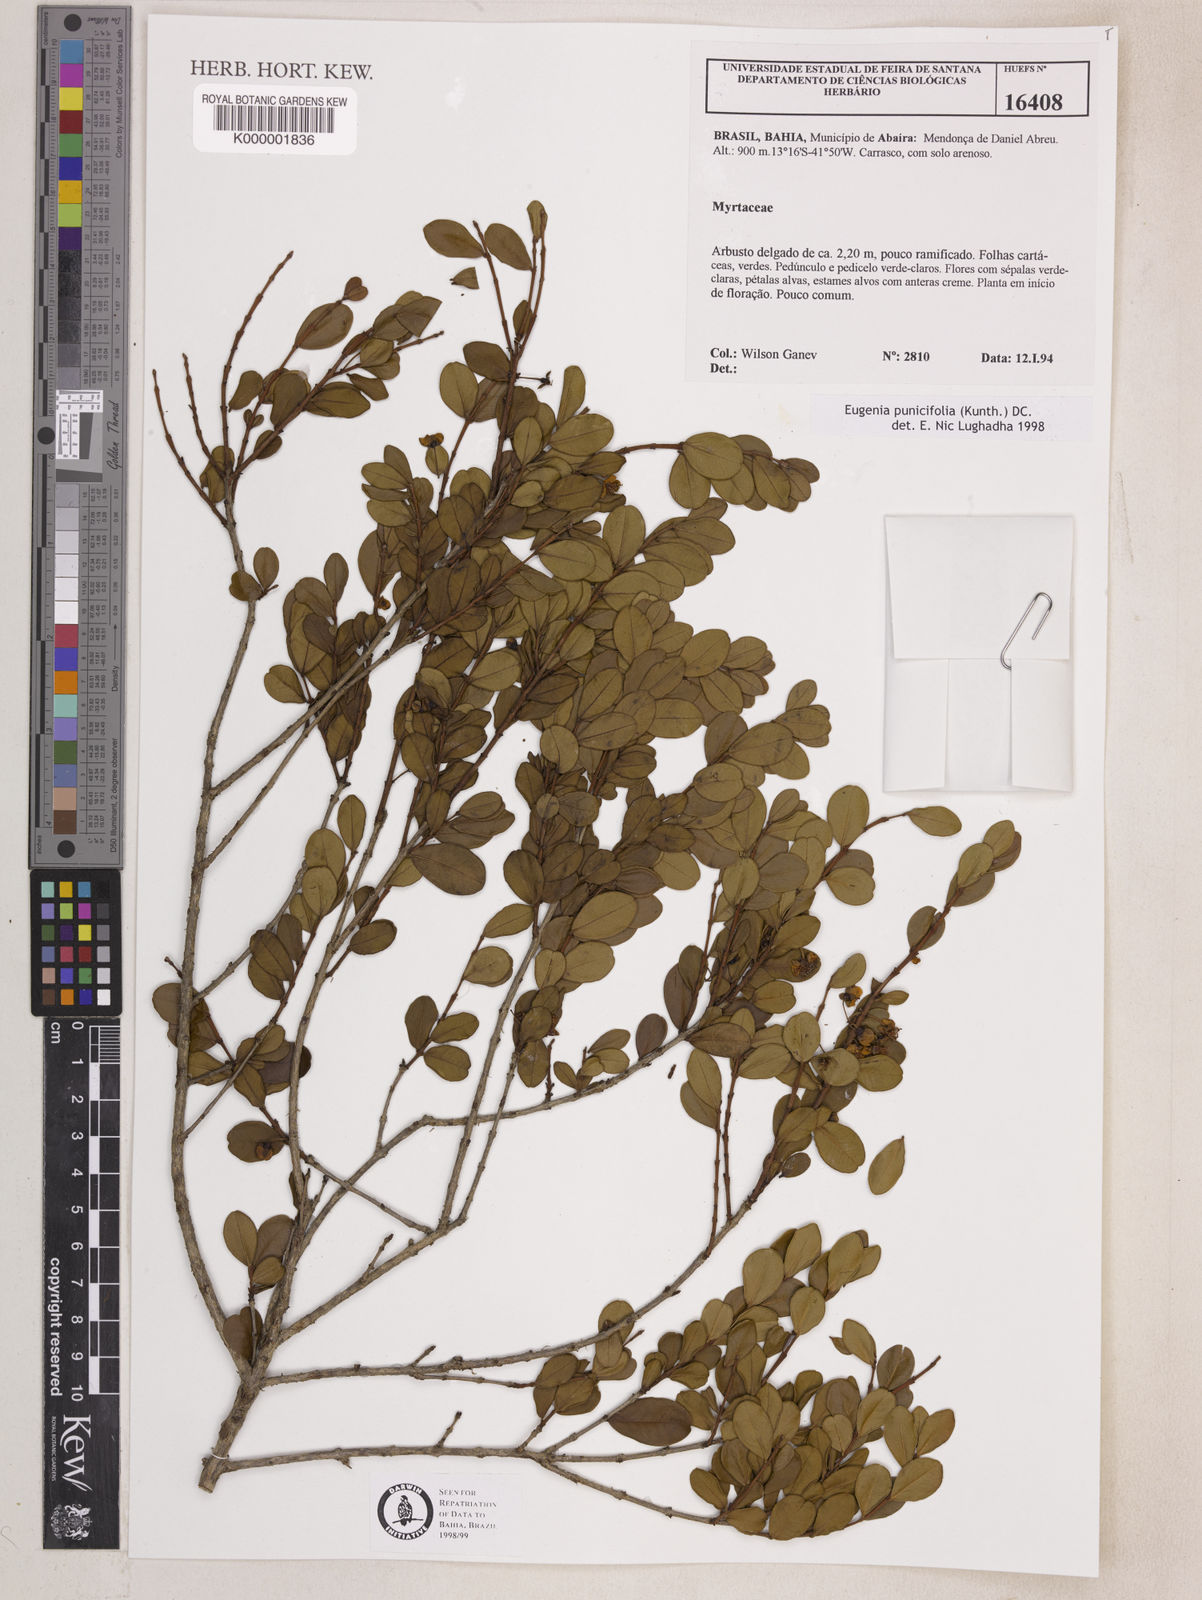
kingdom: Plantae
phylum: Tracheophyta
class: Magnoliopsida
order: Myrtales
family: Myrtaceae
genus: Eugenia
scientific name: Eugenia punicifolia
